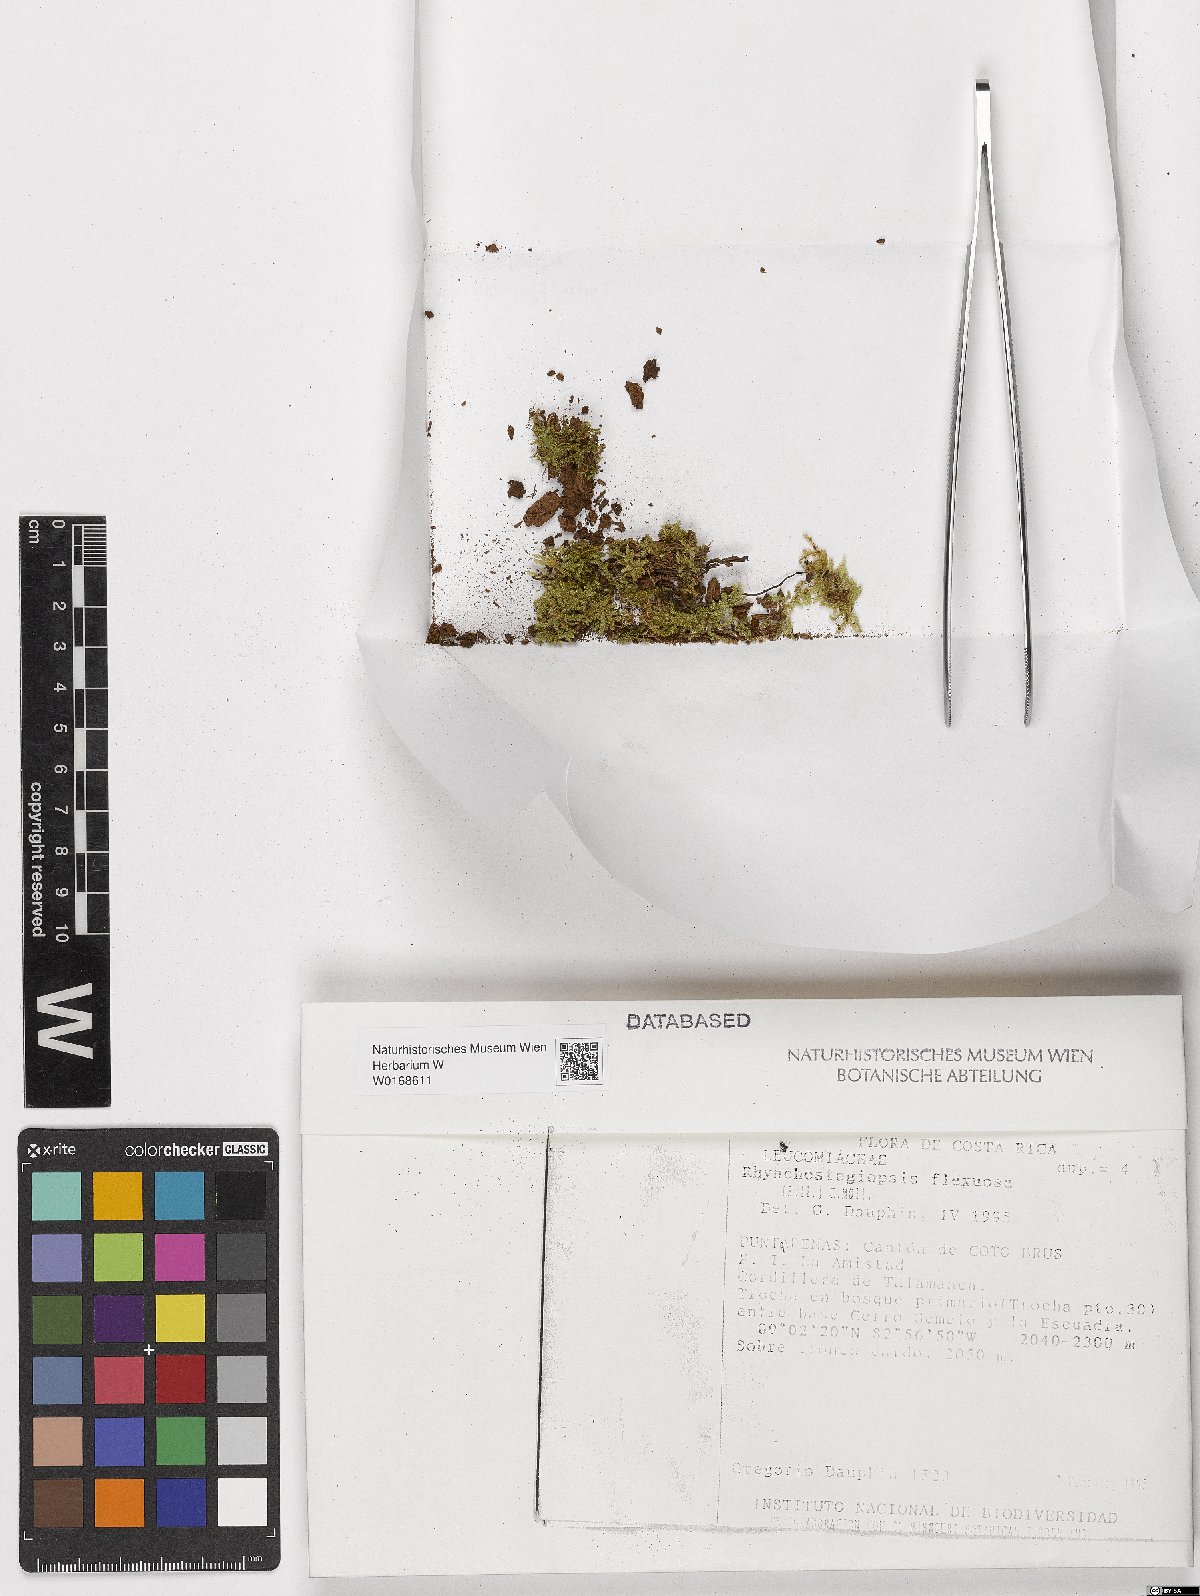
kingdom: Plantae
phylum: Bryophyta
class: Bryopsida
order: Hookeriales
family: Leucomiaceae
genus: Rhynchostegiopsis
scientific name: Rhynchostegiopsis flexuosa
